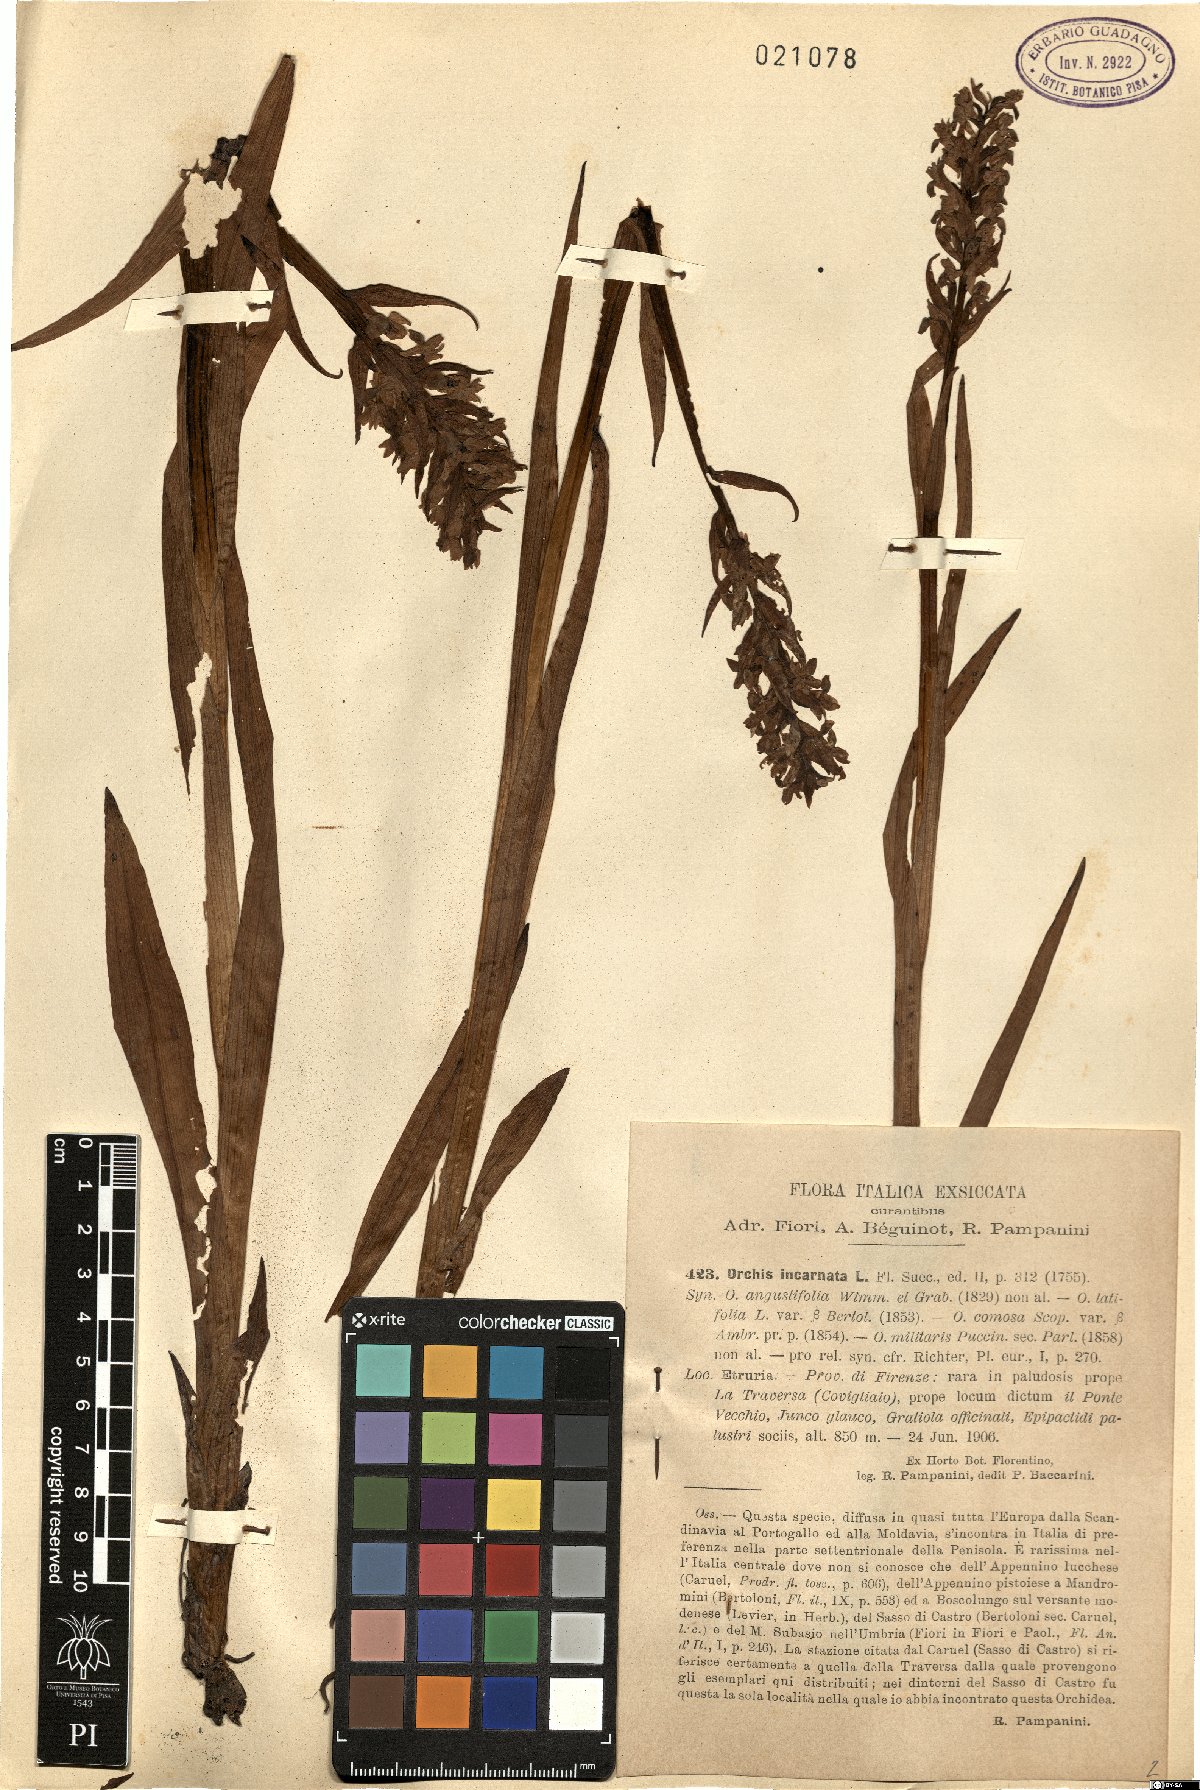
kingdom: Plantae
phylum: Tracheophyta
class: Liliopsida
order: Asparagales
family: Orchidaceae
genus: Dactylorhiza
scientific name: Dactylorhiza incarnata
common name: Early marsh-orchid
